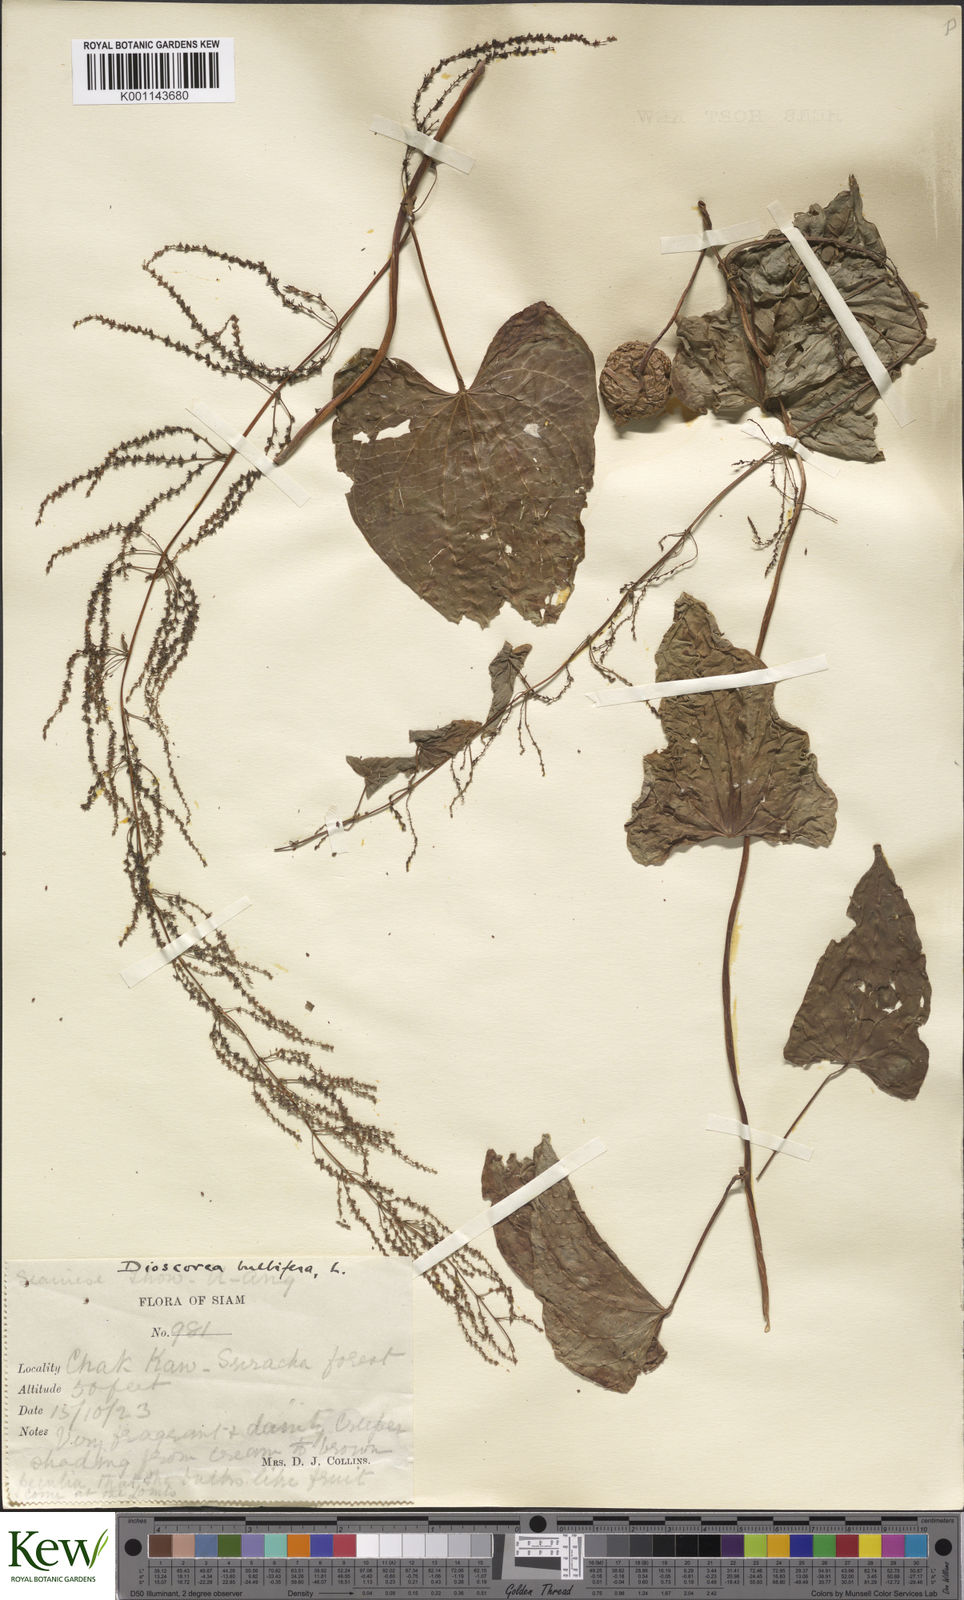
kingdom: Plantae
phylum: Tracheophyta
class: Liliopsida
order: Dioscoreales
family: Dioscoreaceae
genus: Dioscorea
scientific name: Dioscorea bulbifera
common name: Air yam
